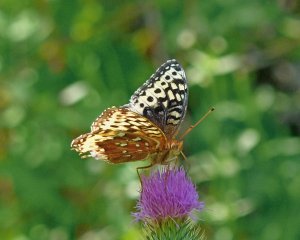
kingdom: Animalia
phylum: Arthropoda
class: Insecta
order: Lepidoptera
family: Nymphalidae
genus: Speyeria
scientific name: Speyeria cybele
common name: Great Spangled Fritillary
